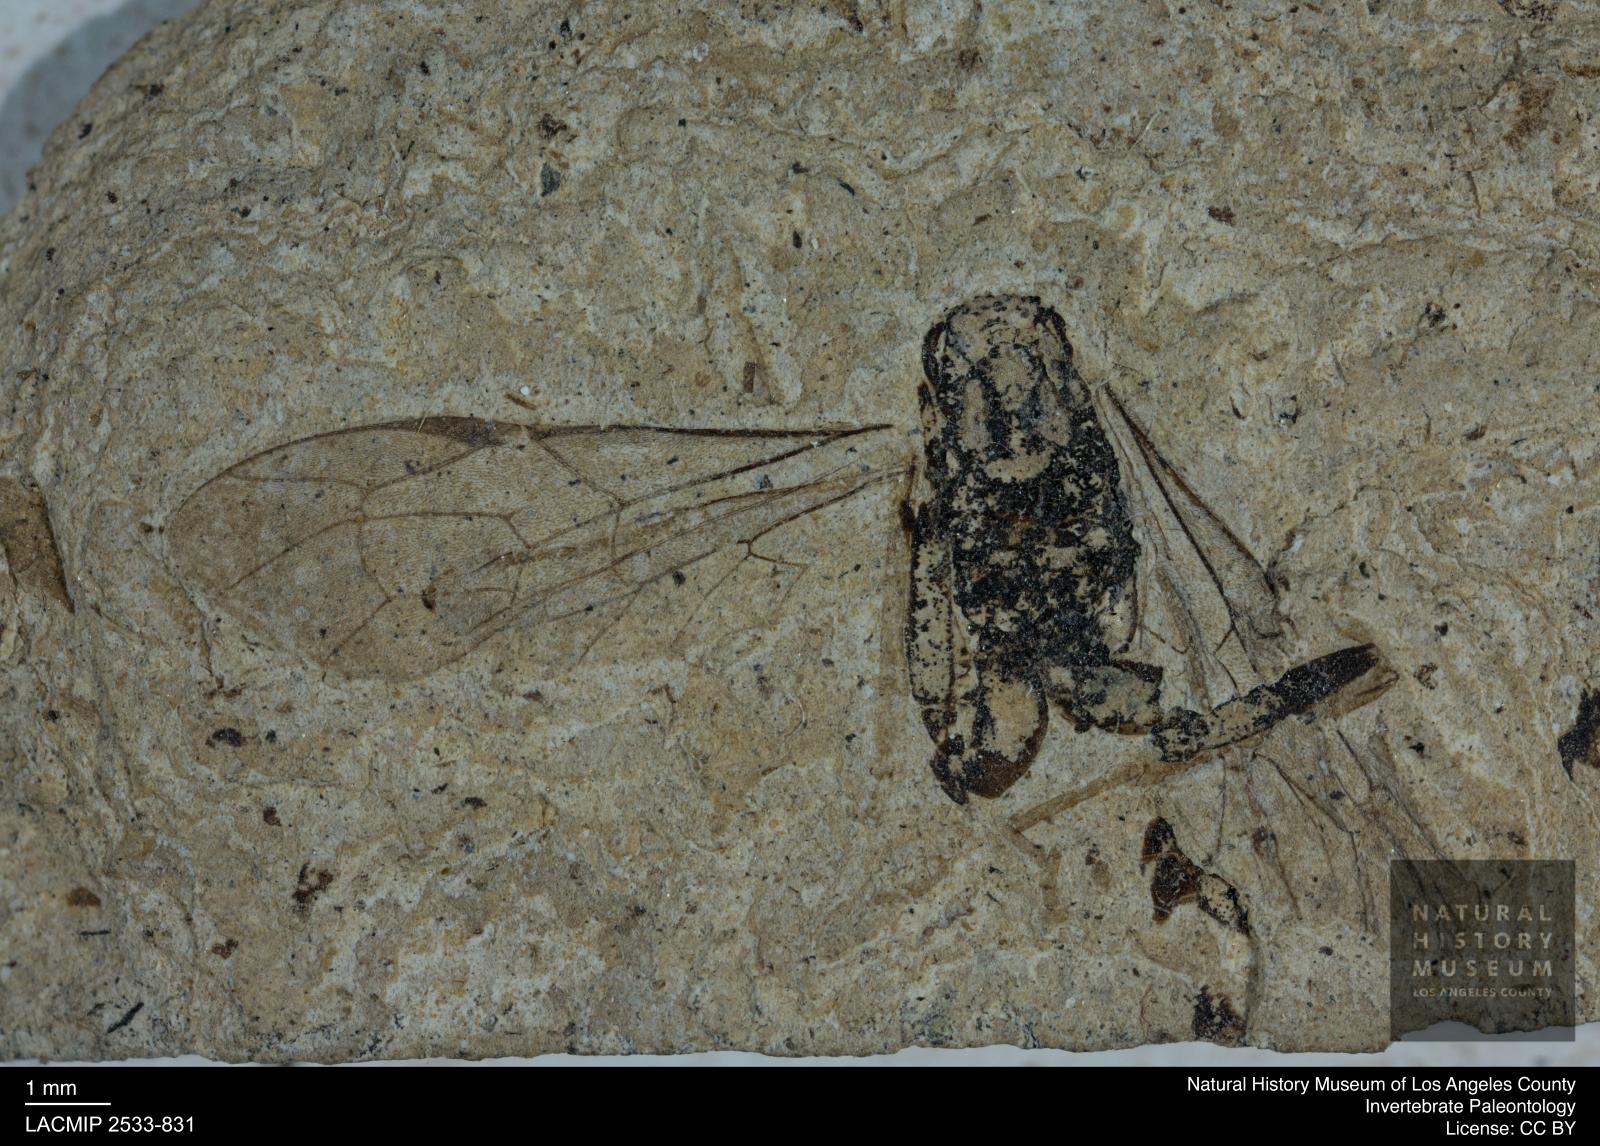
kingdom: Animalia
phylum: Arthropoda
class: Insecta
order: Hymenoptera
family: Ichneumonidae
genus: Protarchus
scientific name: Protarchus antiquus
